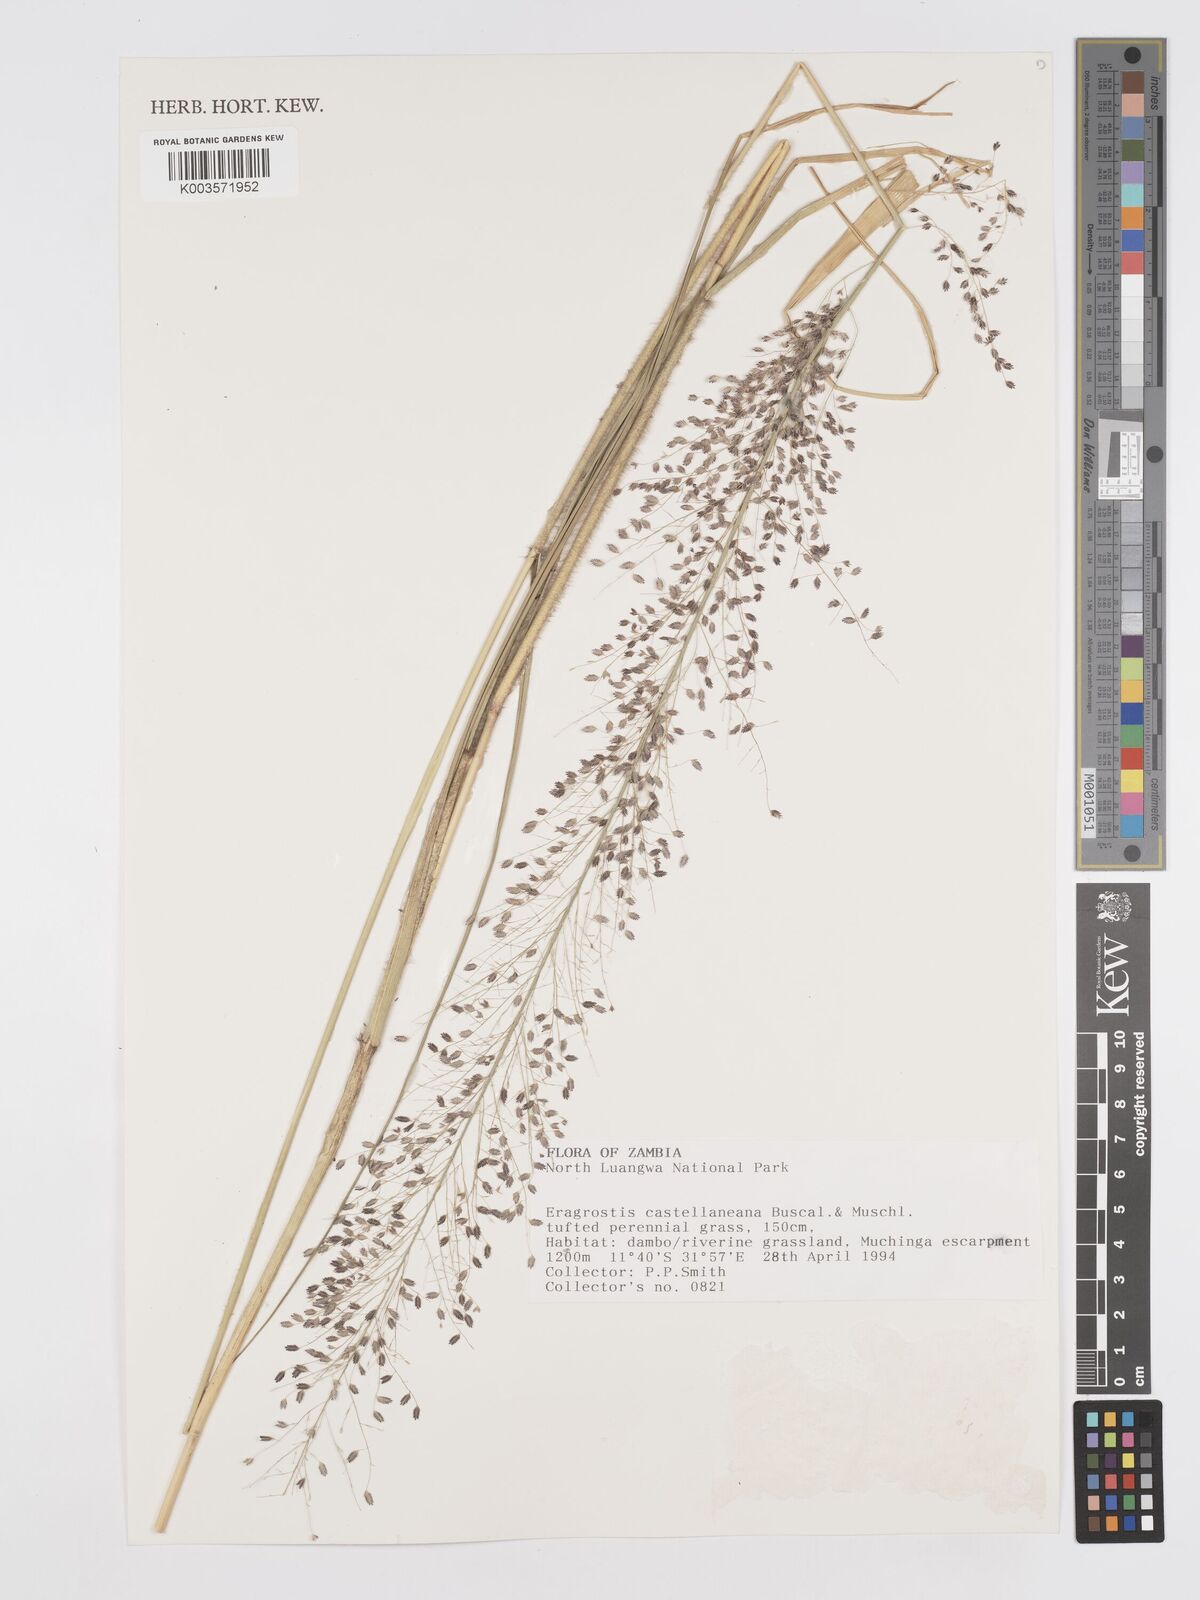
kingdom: Plantae
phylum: Tracheophyta
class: Liliopsida
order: Poales
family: Poaceae
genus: Eragrostis
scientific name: Eragrostis castellaneana
